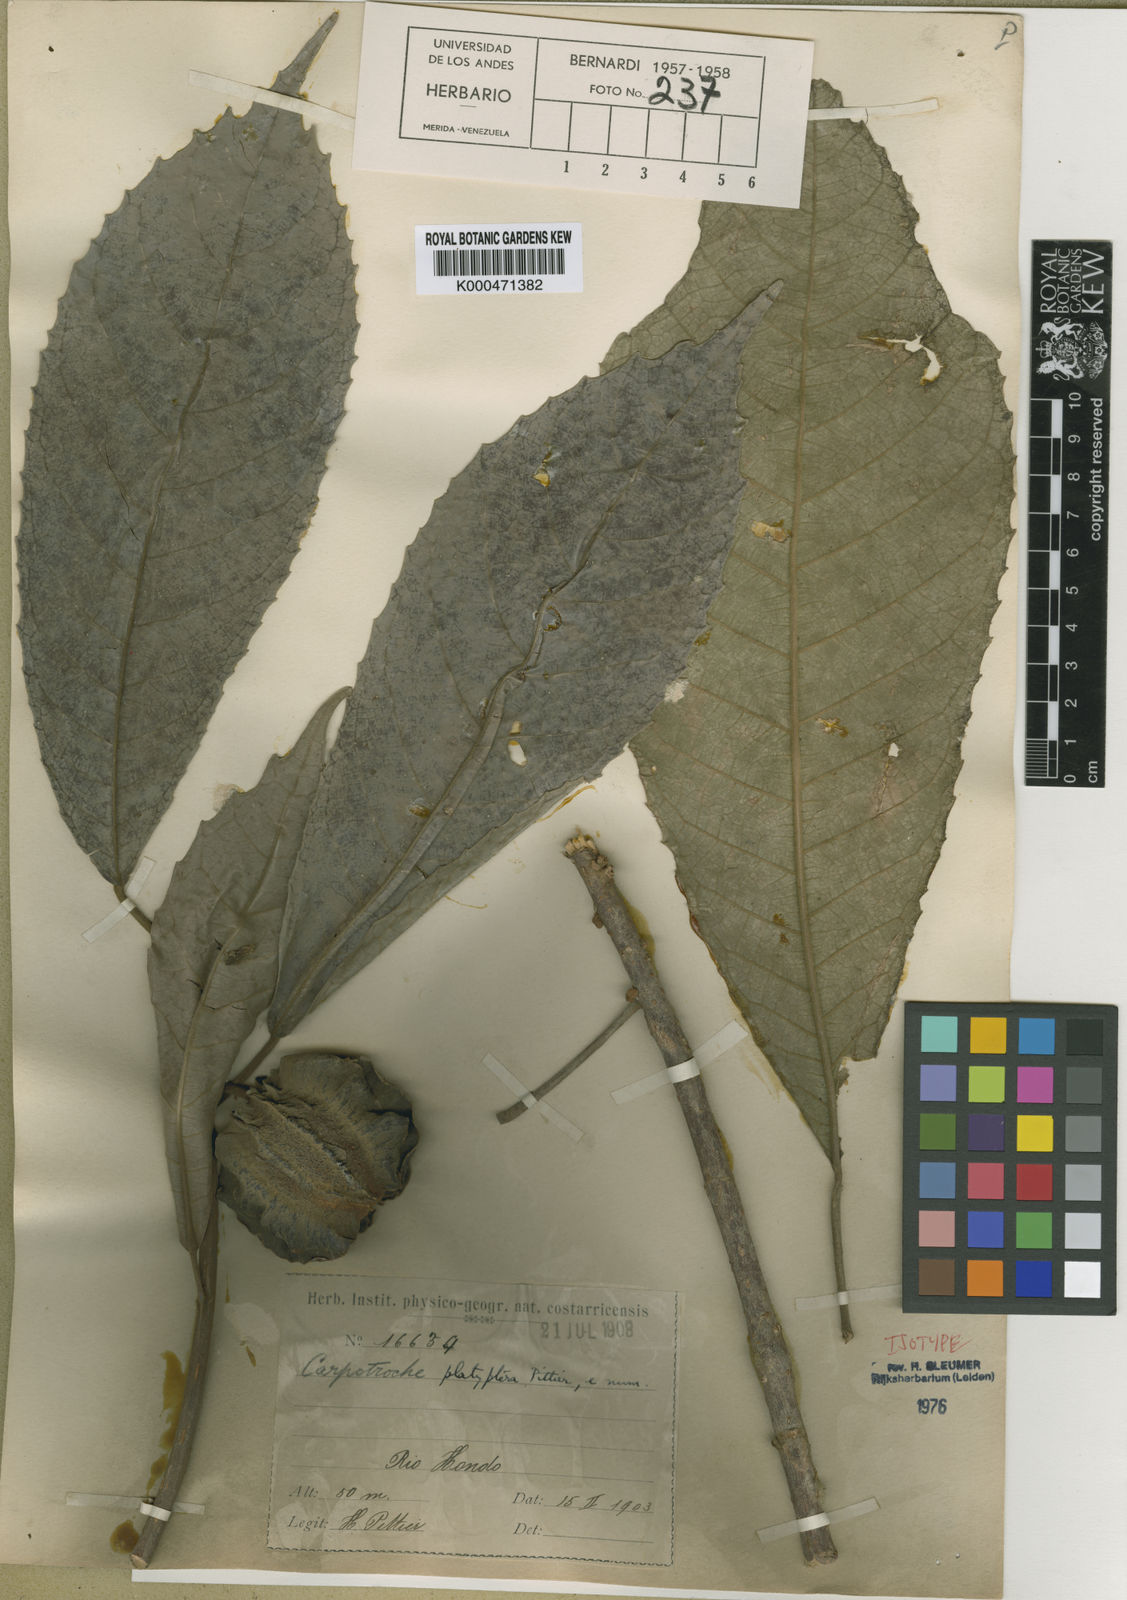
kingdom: Plantae
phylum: Tracheophyta
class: Magnoliopsida
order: Malpighiales
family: Achariaceae
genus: Carpotroche
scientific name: Carpotroche platyptera
